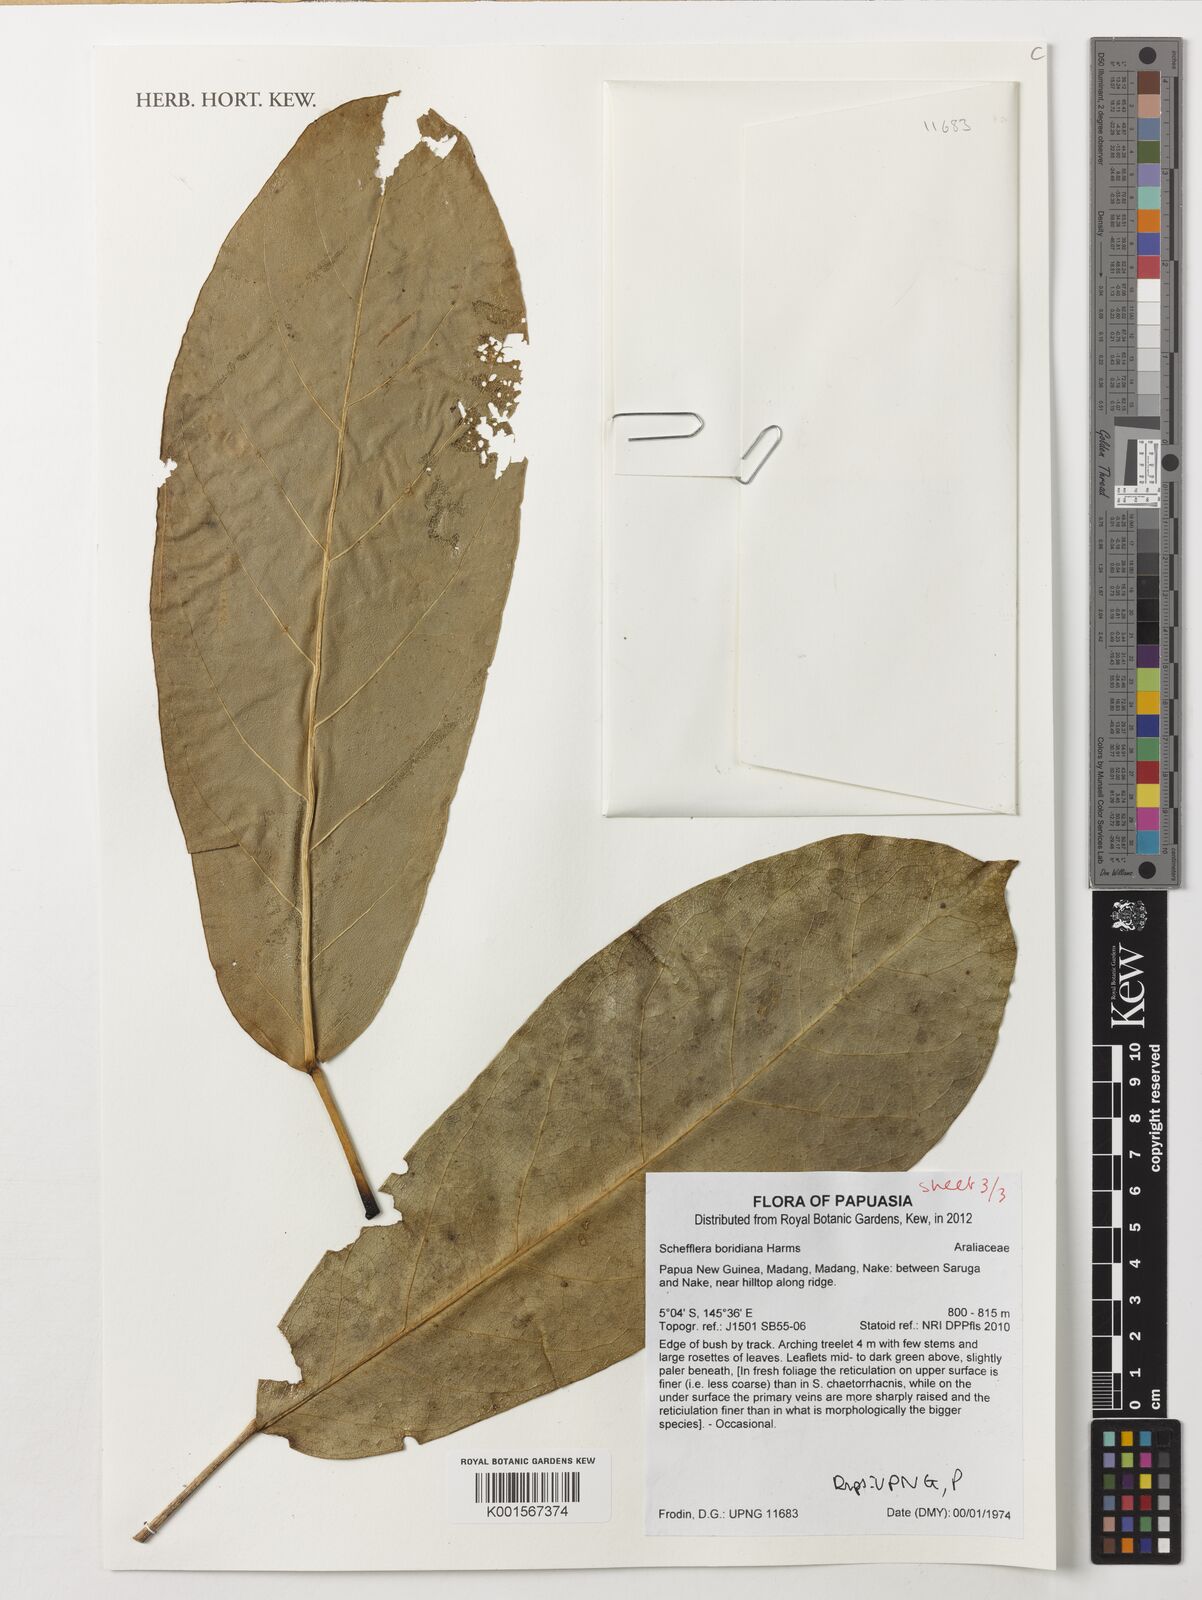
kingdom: Plantae
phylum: Tracheophyta
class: Magnoliopsida
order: Apiales
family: Araliaceae
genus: Heptapleurum
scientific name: Heptapleurum boridianum
